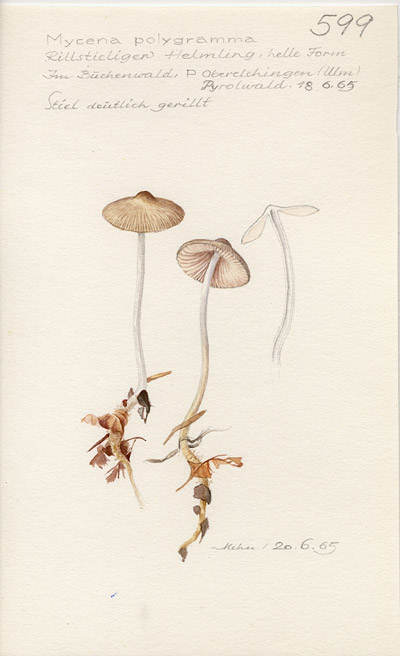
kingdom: Fungi
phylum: Basidiomycota
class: Agaricomycetes
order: Agaricales
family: Mycenaceae
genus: Mycena
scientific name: Mycena polygramma
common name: Grooved bonnet
